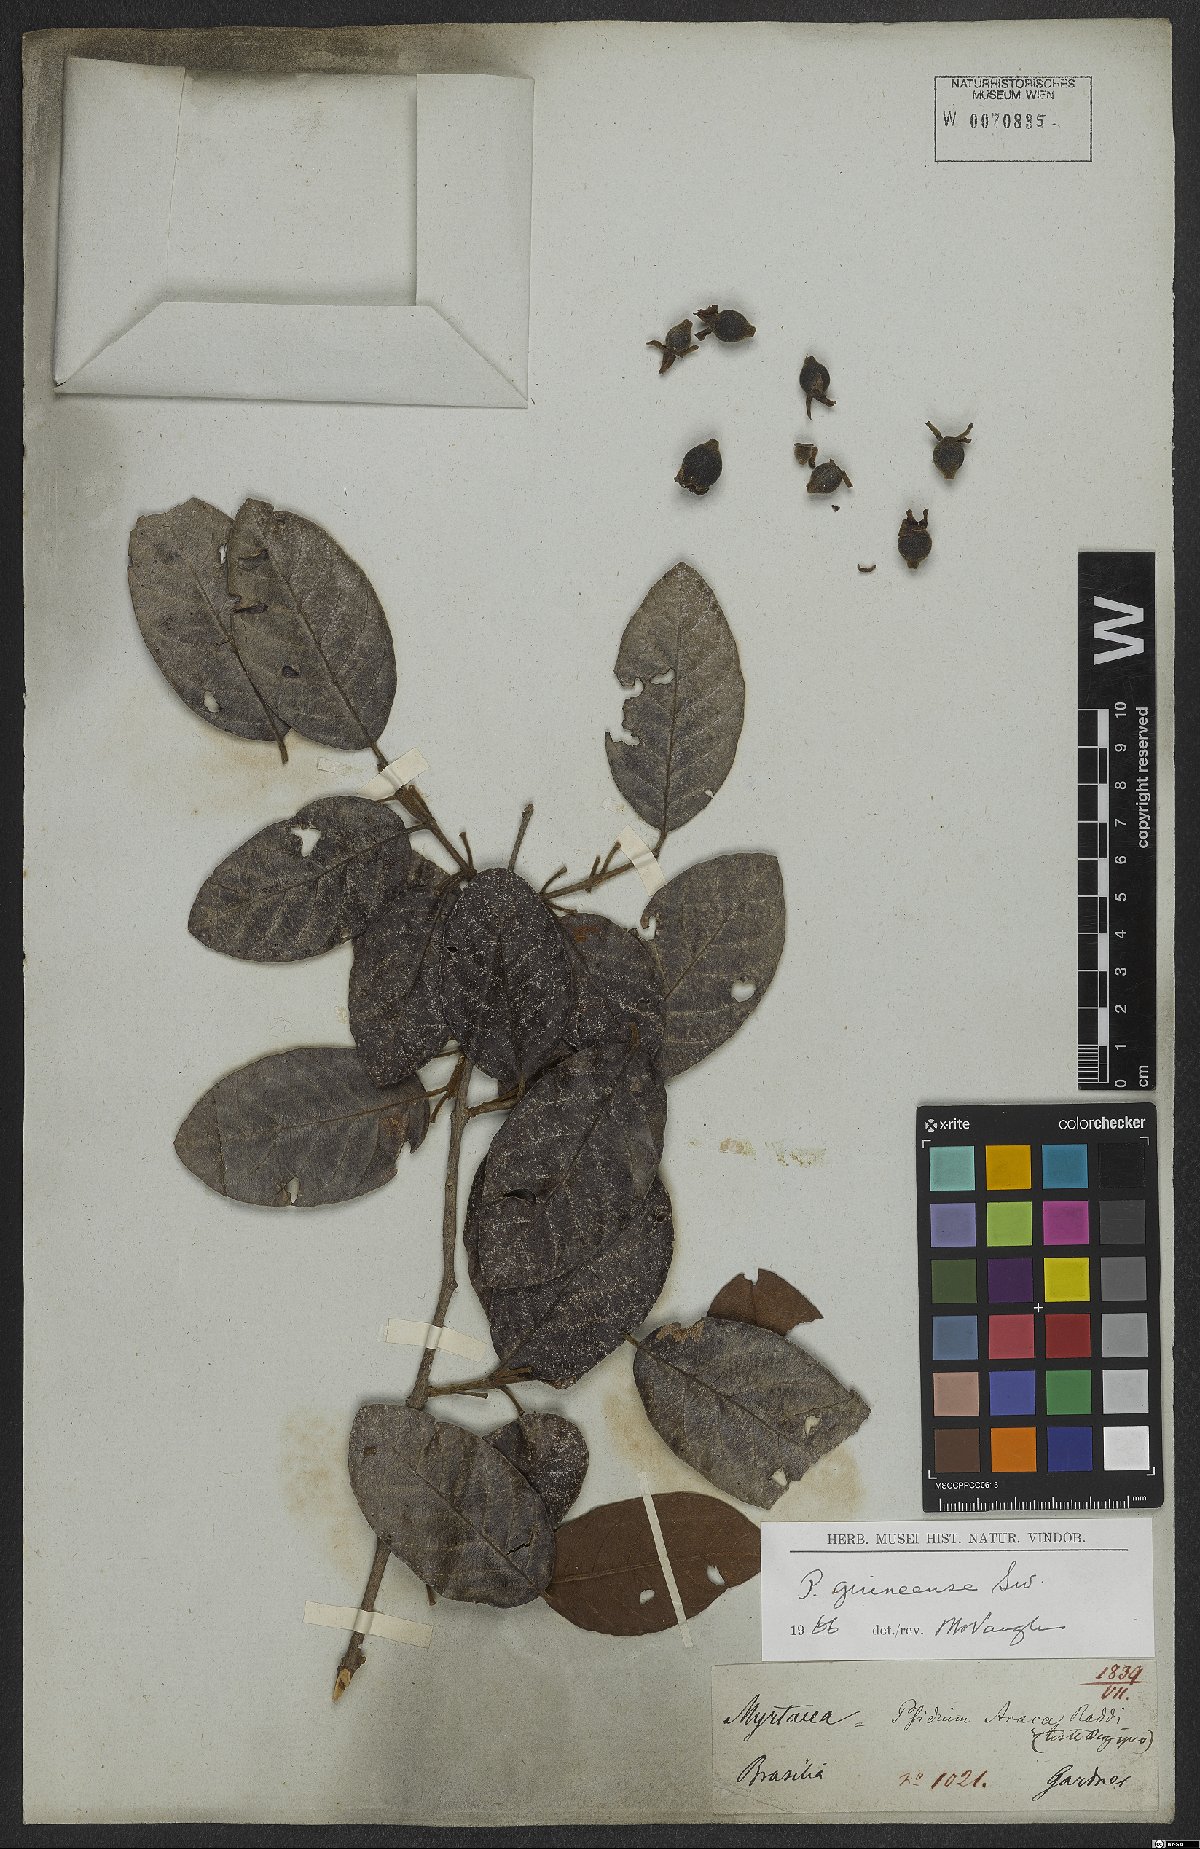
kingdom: Plantae
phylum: Tracheophyta
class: Magnoliopsida
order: Myrtales
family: Myrtaceae
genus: Psidium
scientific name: Psidium guineense
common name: Brazilian guava
